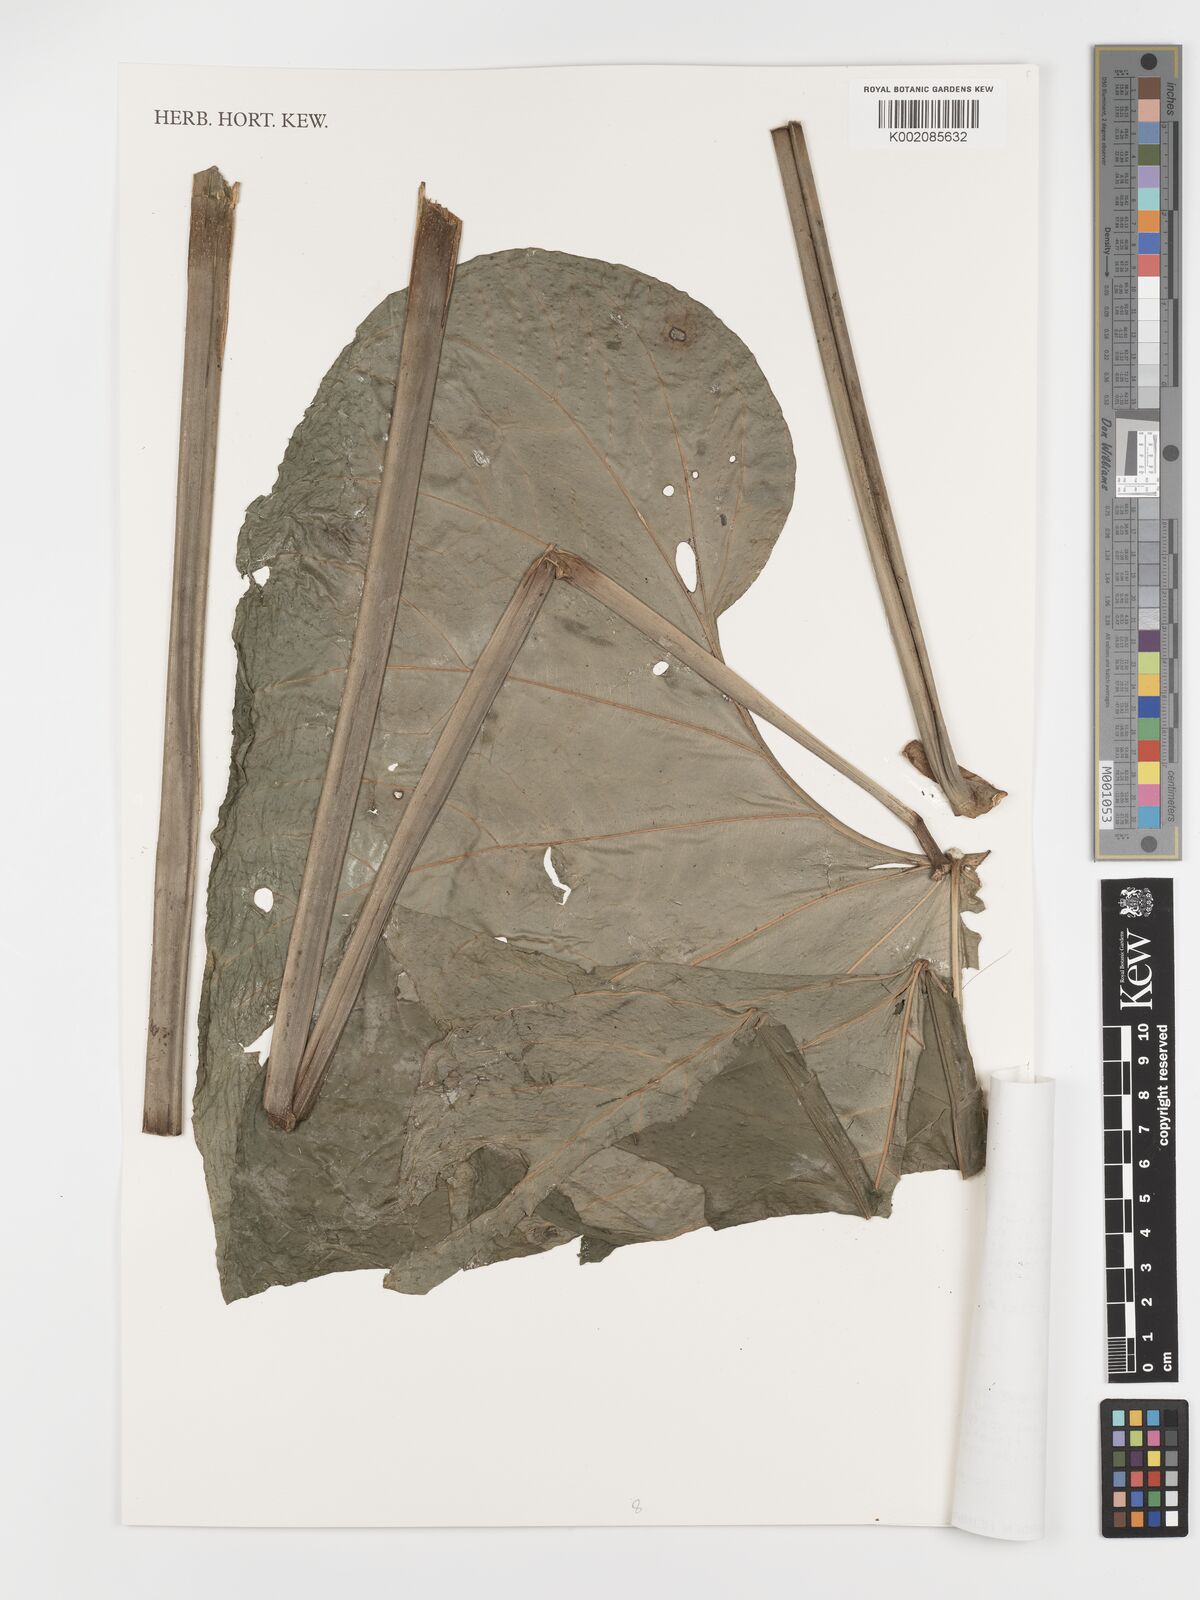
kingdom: Plantae
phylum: Tracheophyta
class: Liliopsida
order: Alismatales
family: Araceae
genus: Anthurium
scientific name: Anthurium balaoanum
